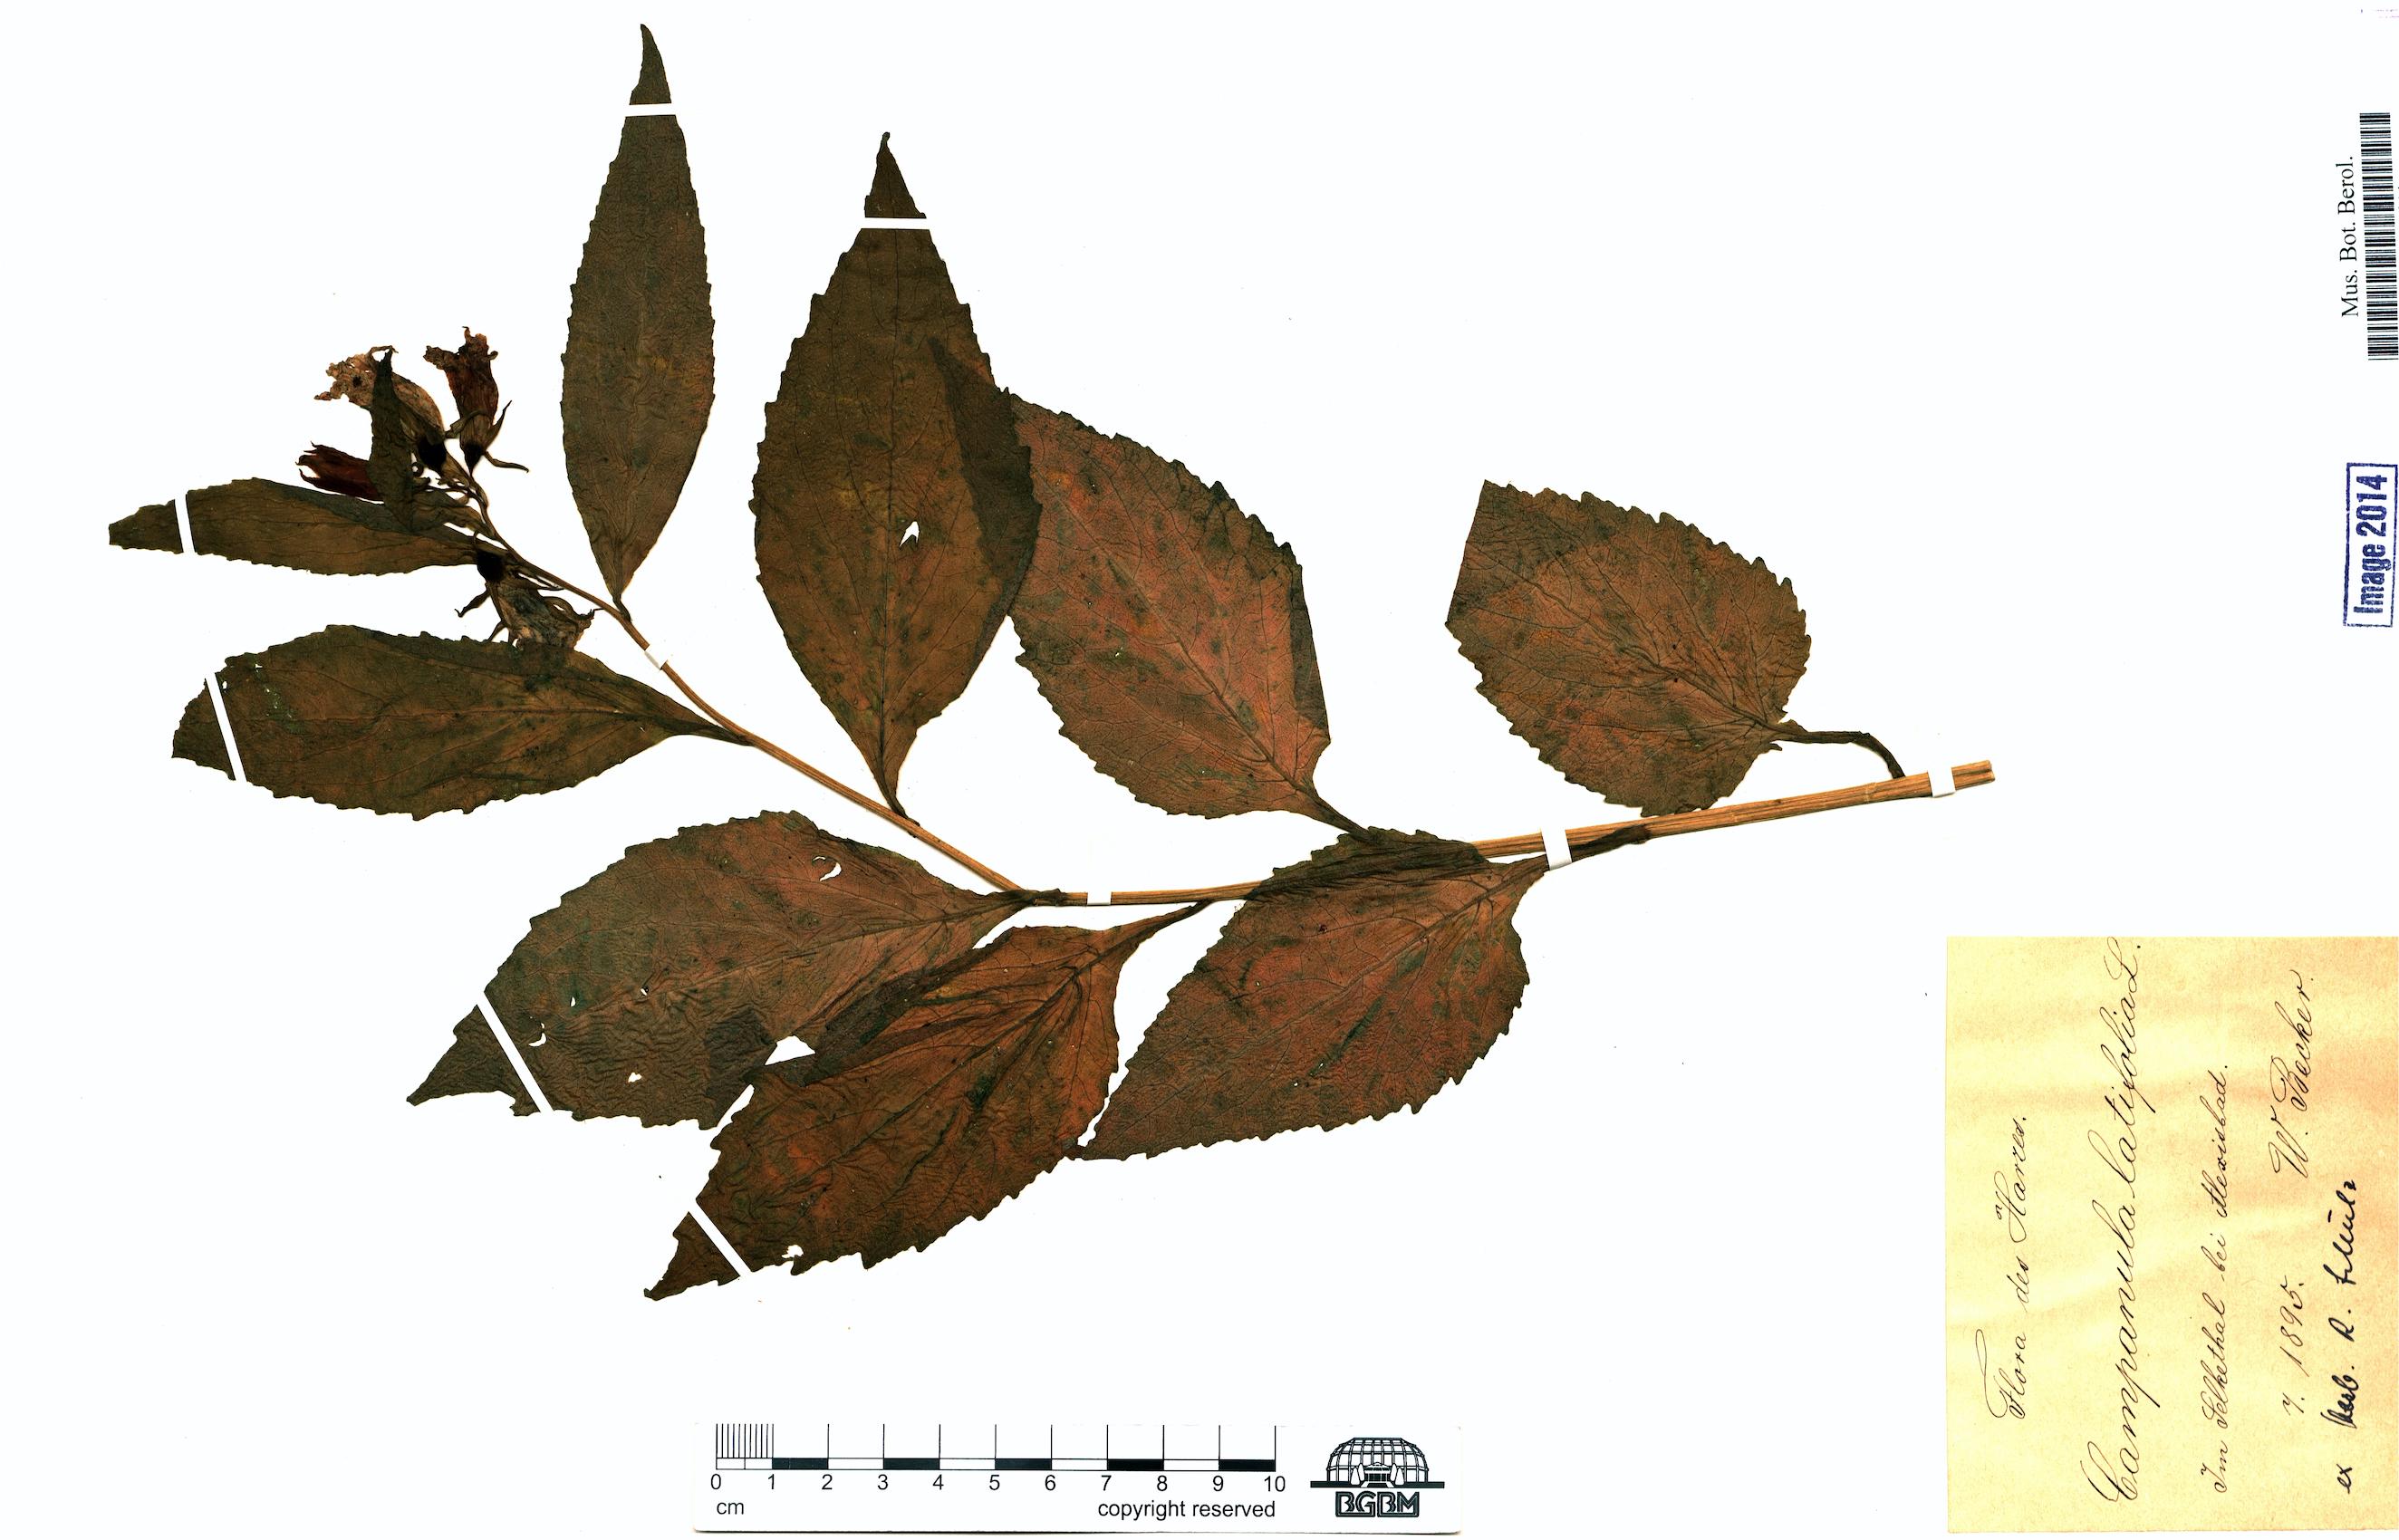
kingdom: Plantae
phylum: Tracheophyta
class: Magnoliopsida
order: Asterales
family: Campanulaceae
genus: Campanula
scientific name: Campanula latifolia
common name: Giant bellflower
